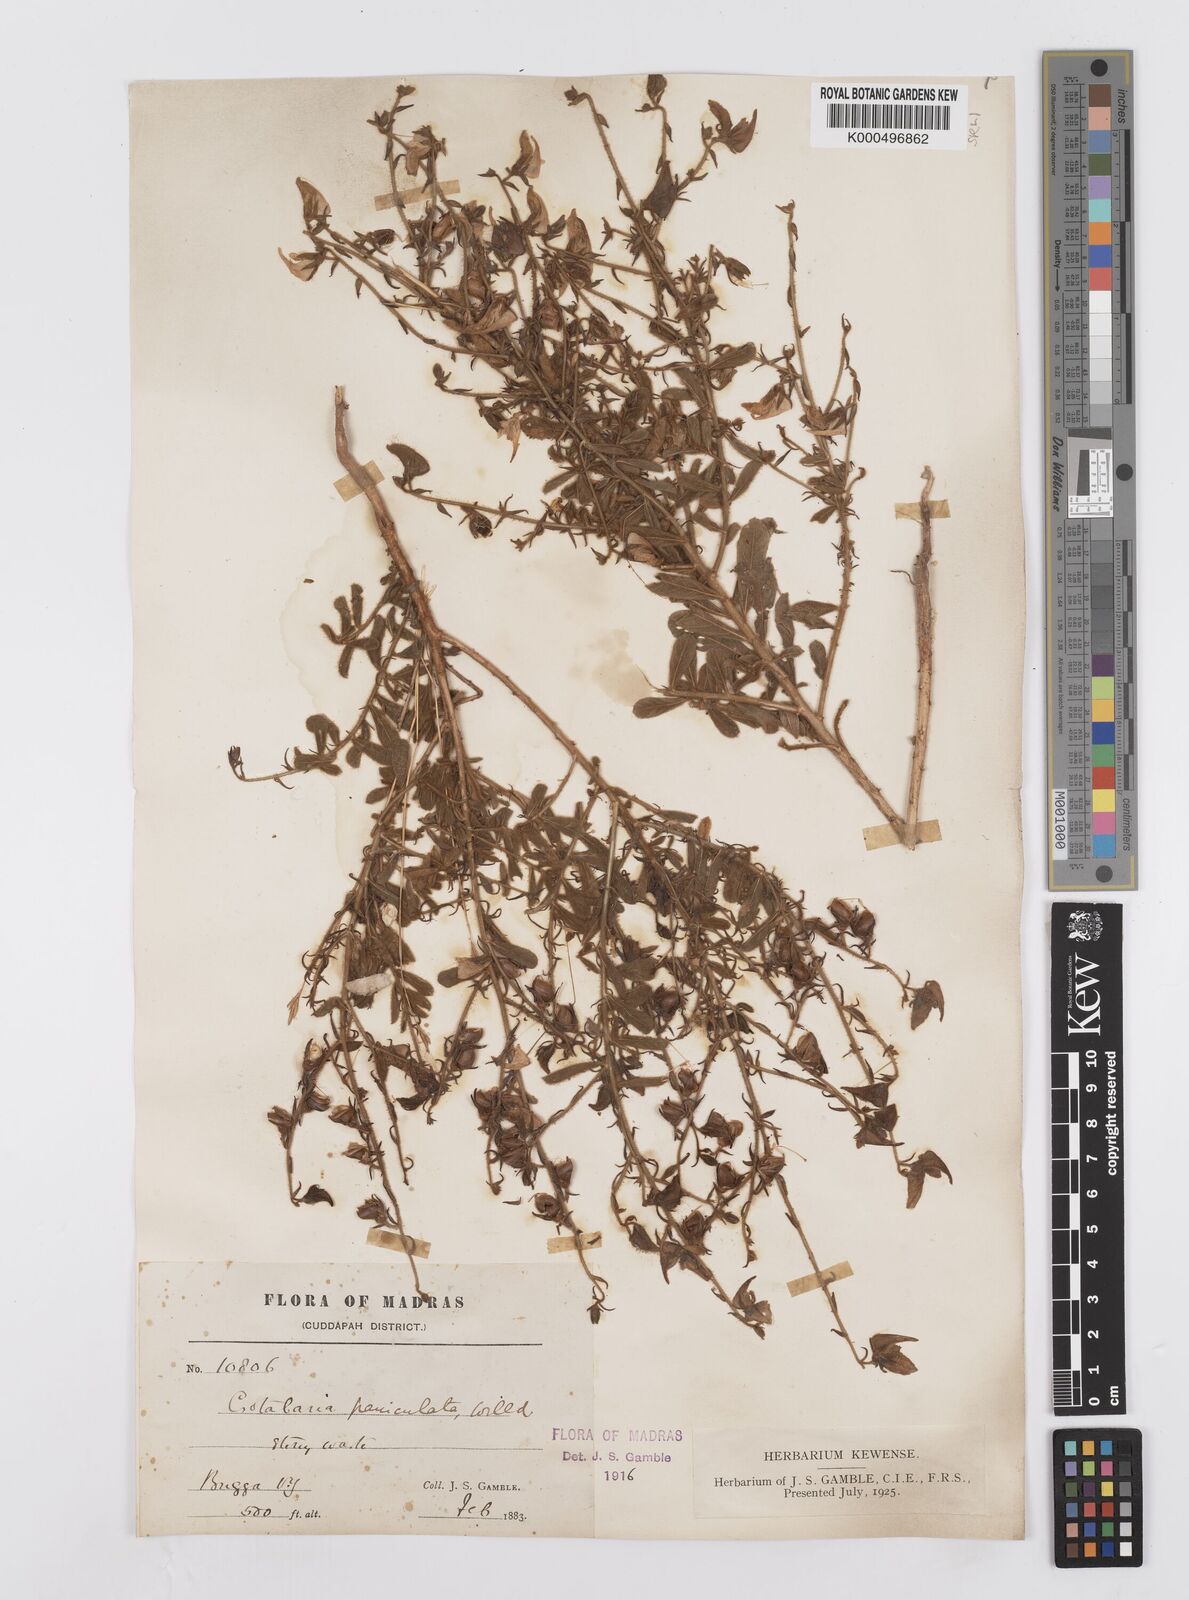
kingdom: Plantae
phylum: Tracheophyta
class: Magnoliopsida
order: Fabales
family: Fabaceae
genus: Crotalaria
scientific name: Crotalaria paniculata
